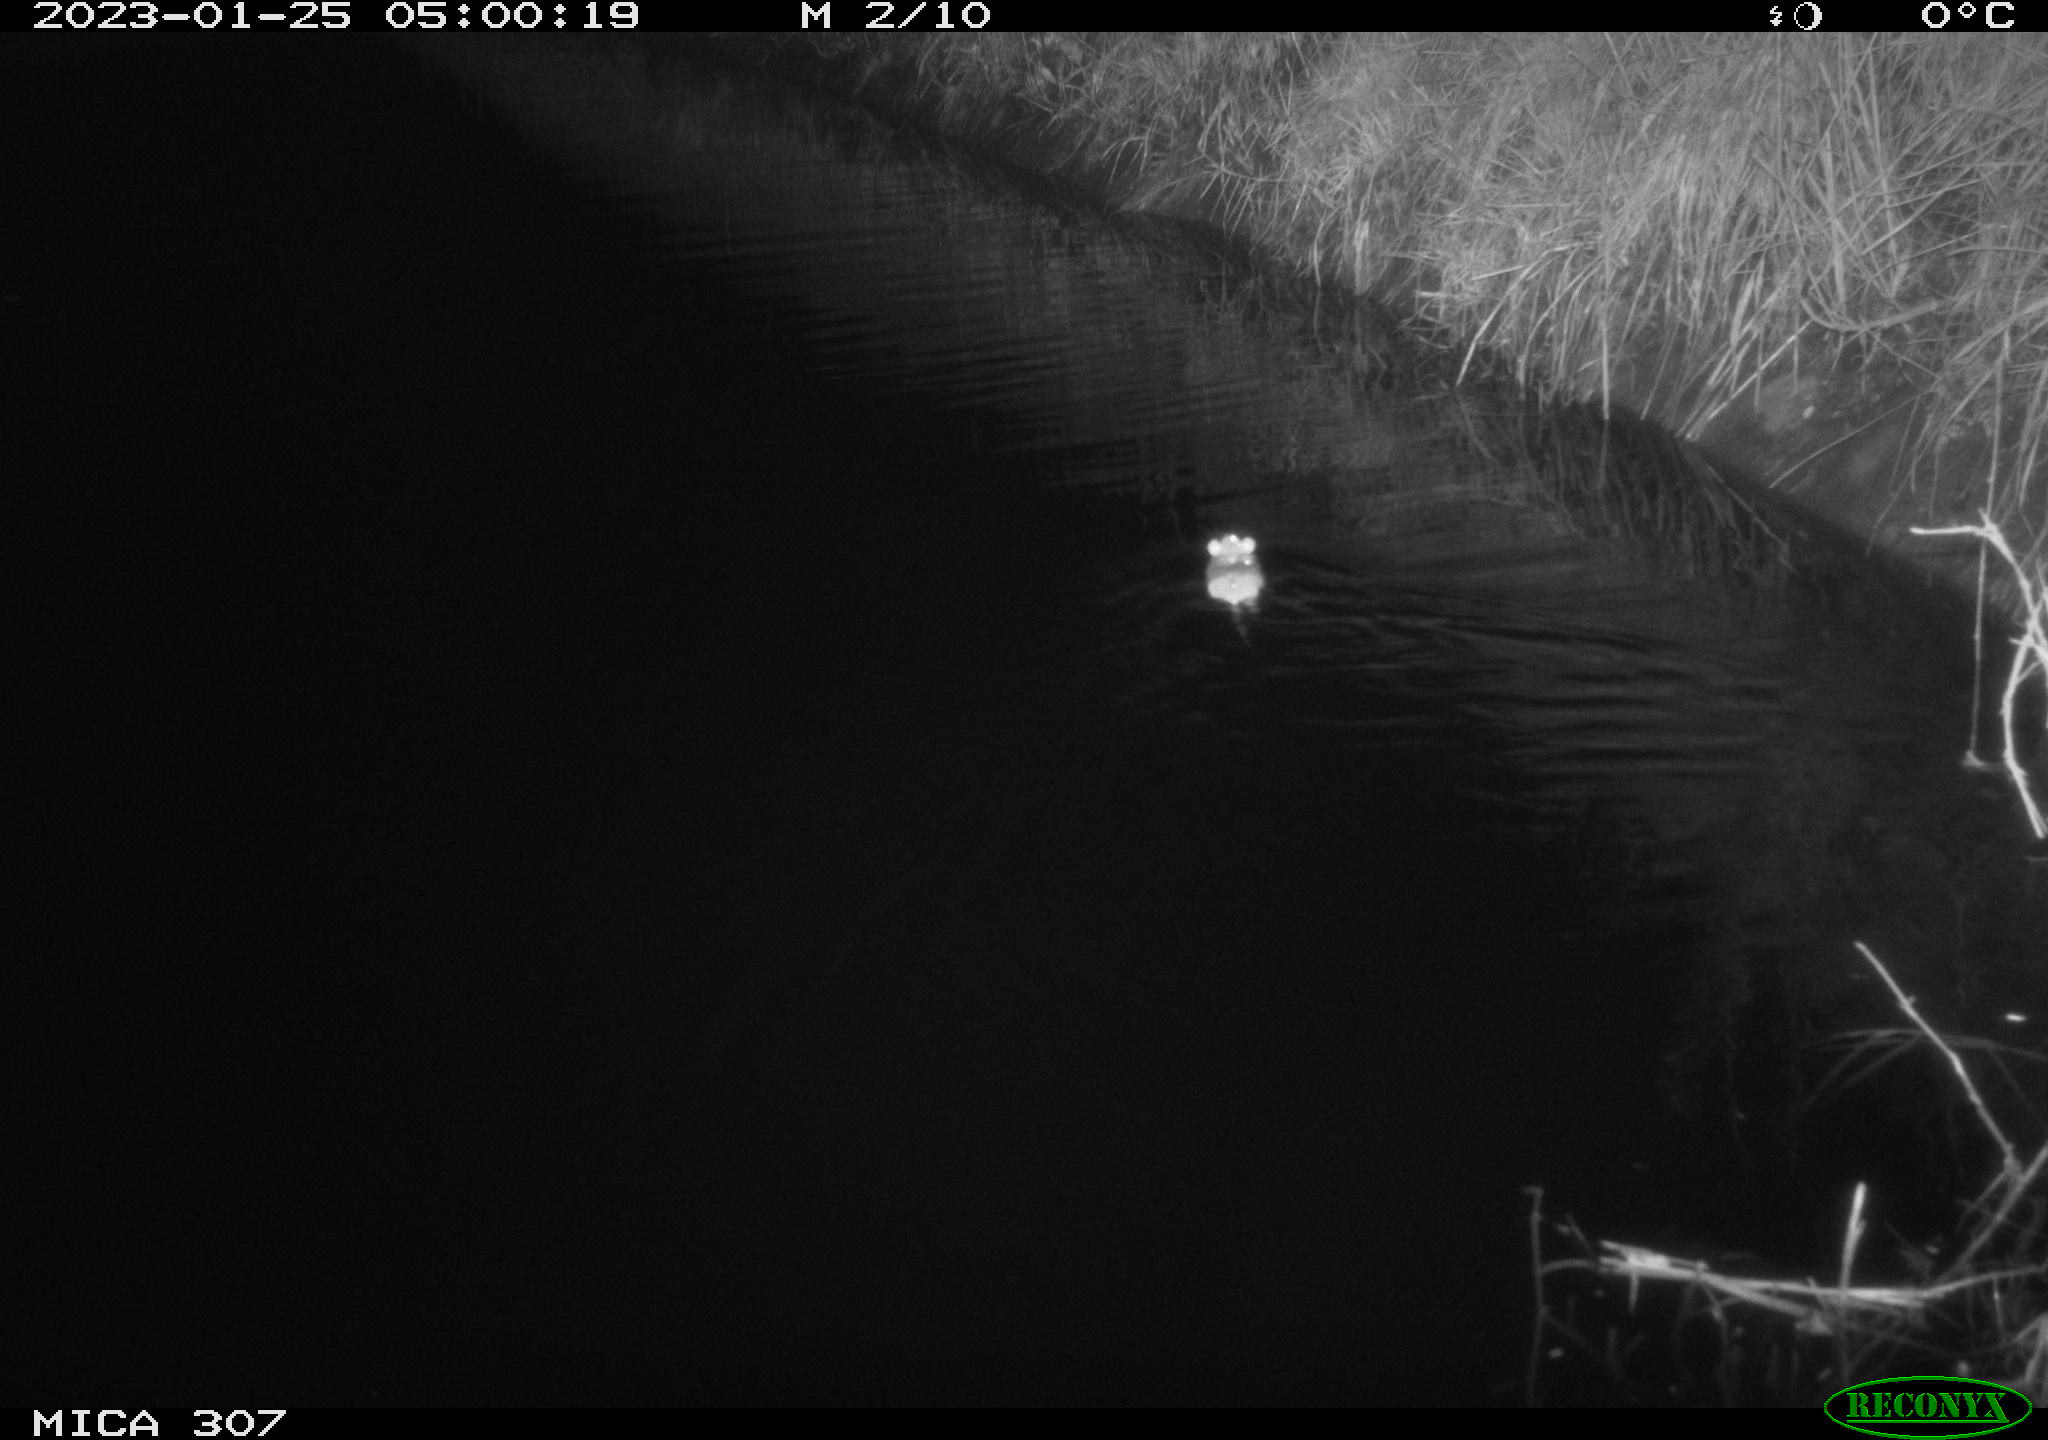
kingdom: Animalia
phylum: Chordata
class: Mammalia
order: Rodentia
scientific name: Rodentia
